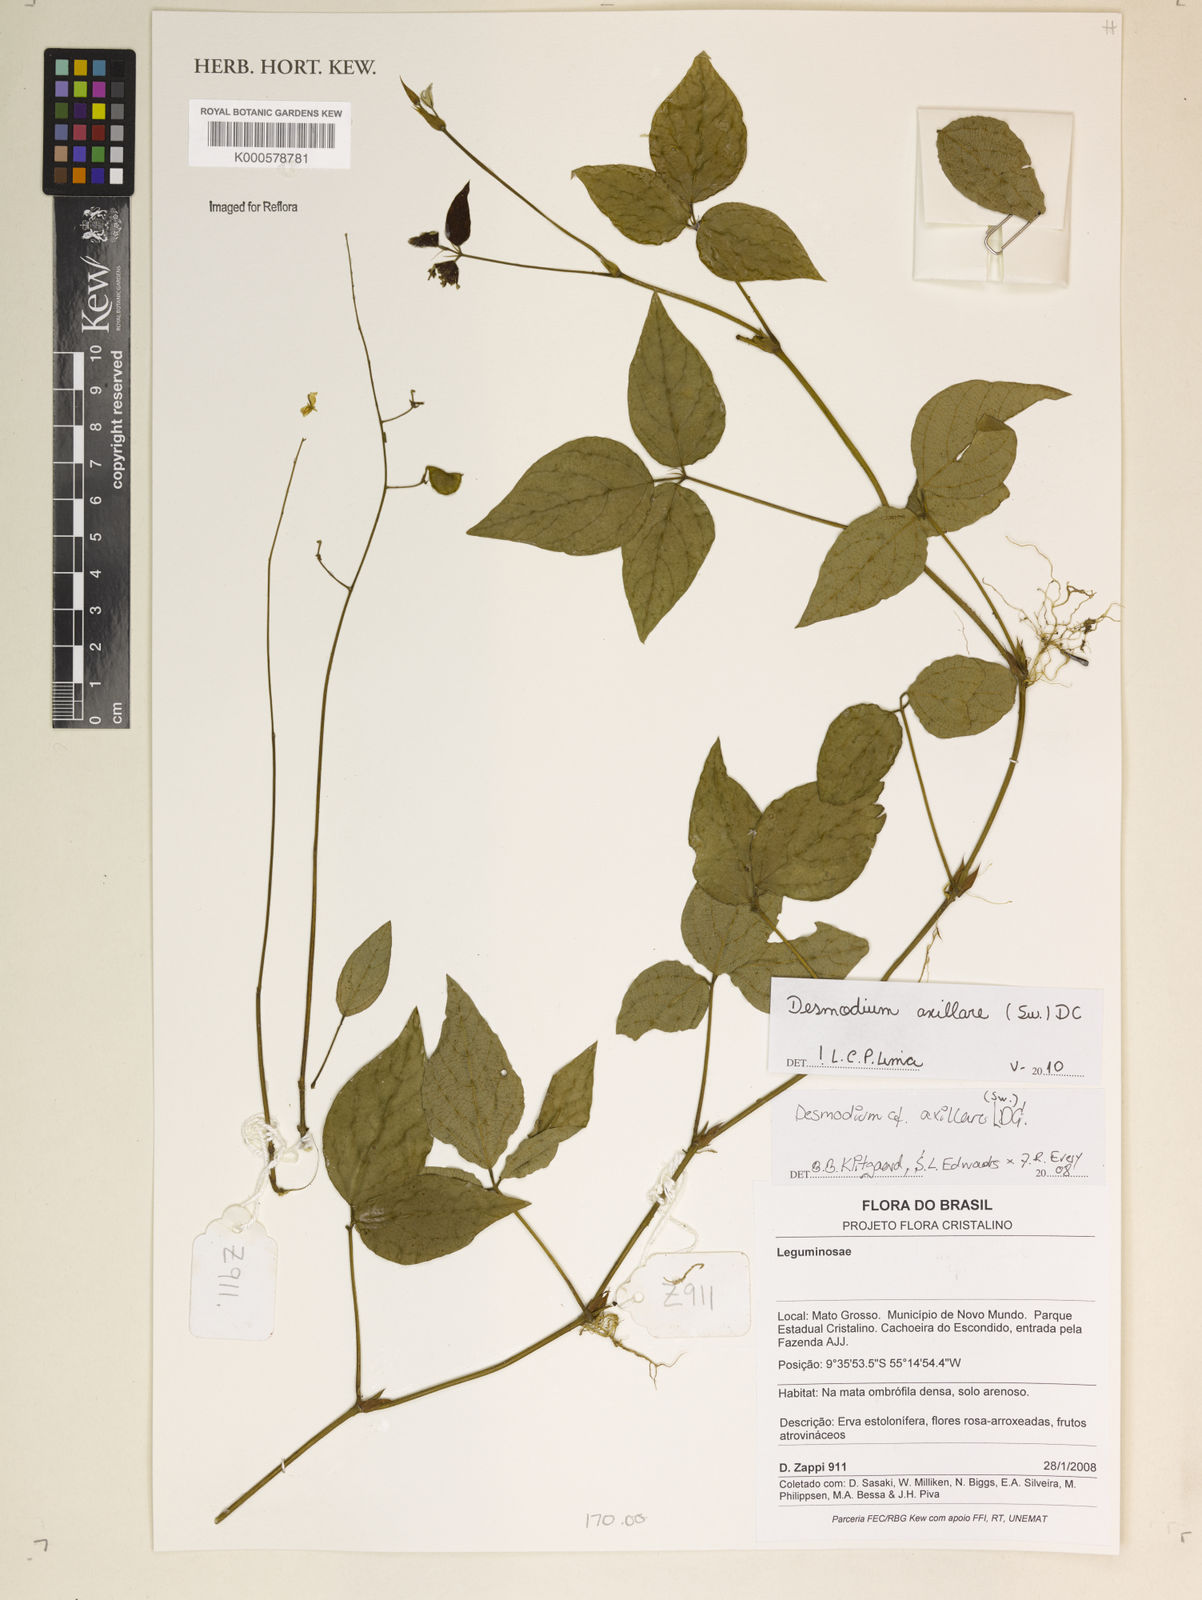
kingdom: Plantae
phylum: Tracheophyta
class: Magnoliopsida
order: Fabales
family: Fabaceae
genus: Desmodium
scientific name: Desmodium axillare
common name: Wire with
